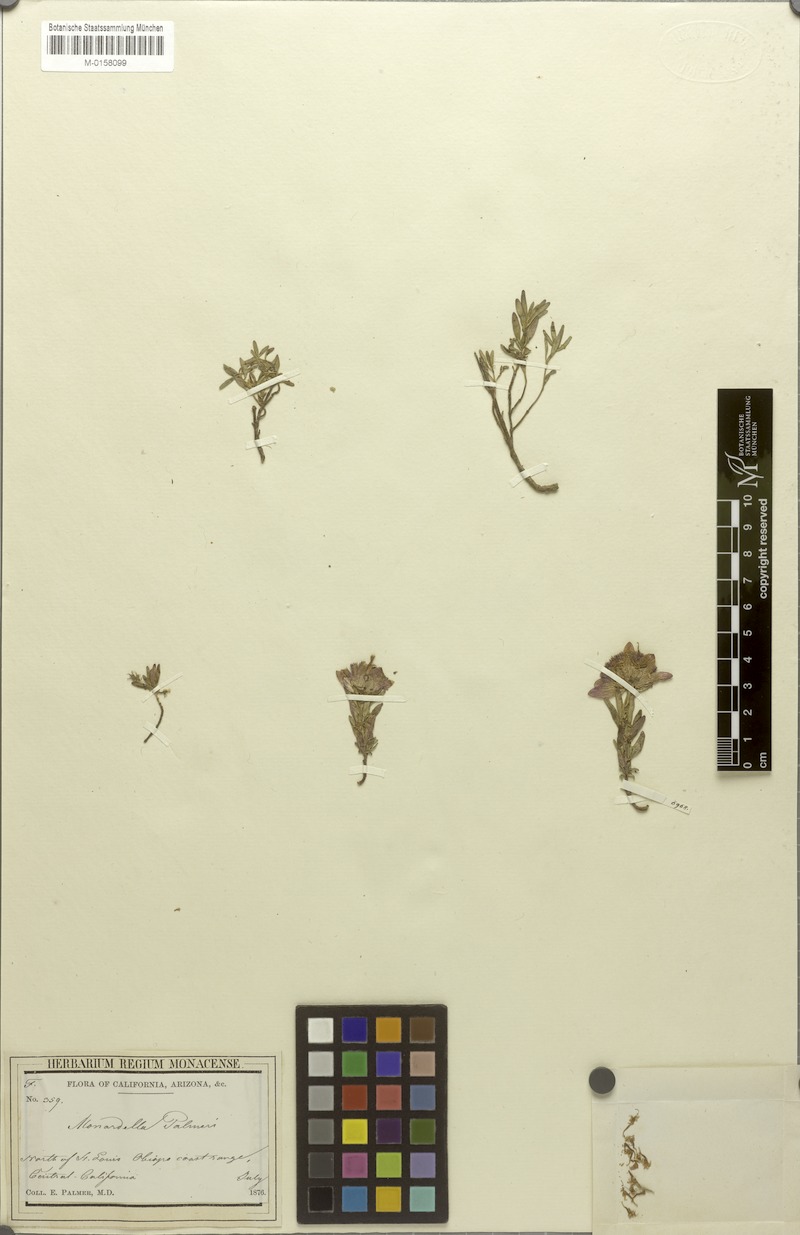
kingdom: Plantae
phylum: Tracheophyta
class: Magnoliopsida
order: Lamiales
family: Lamiaceae
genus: Monardella
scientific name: Monardella palmeri
